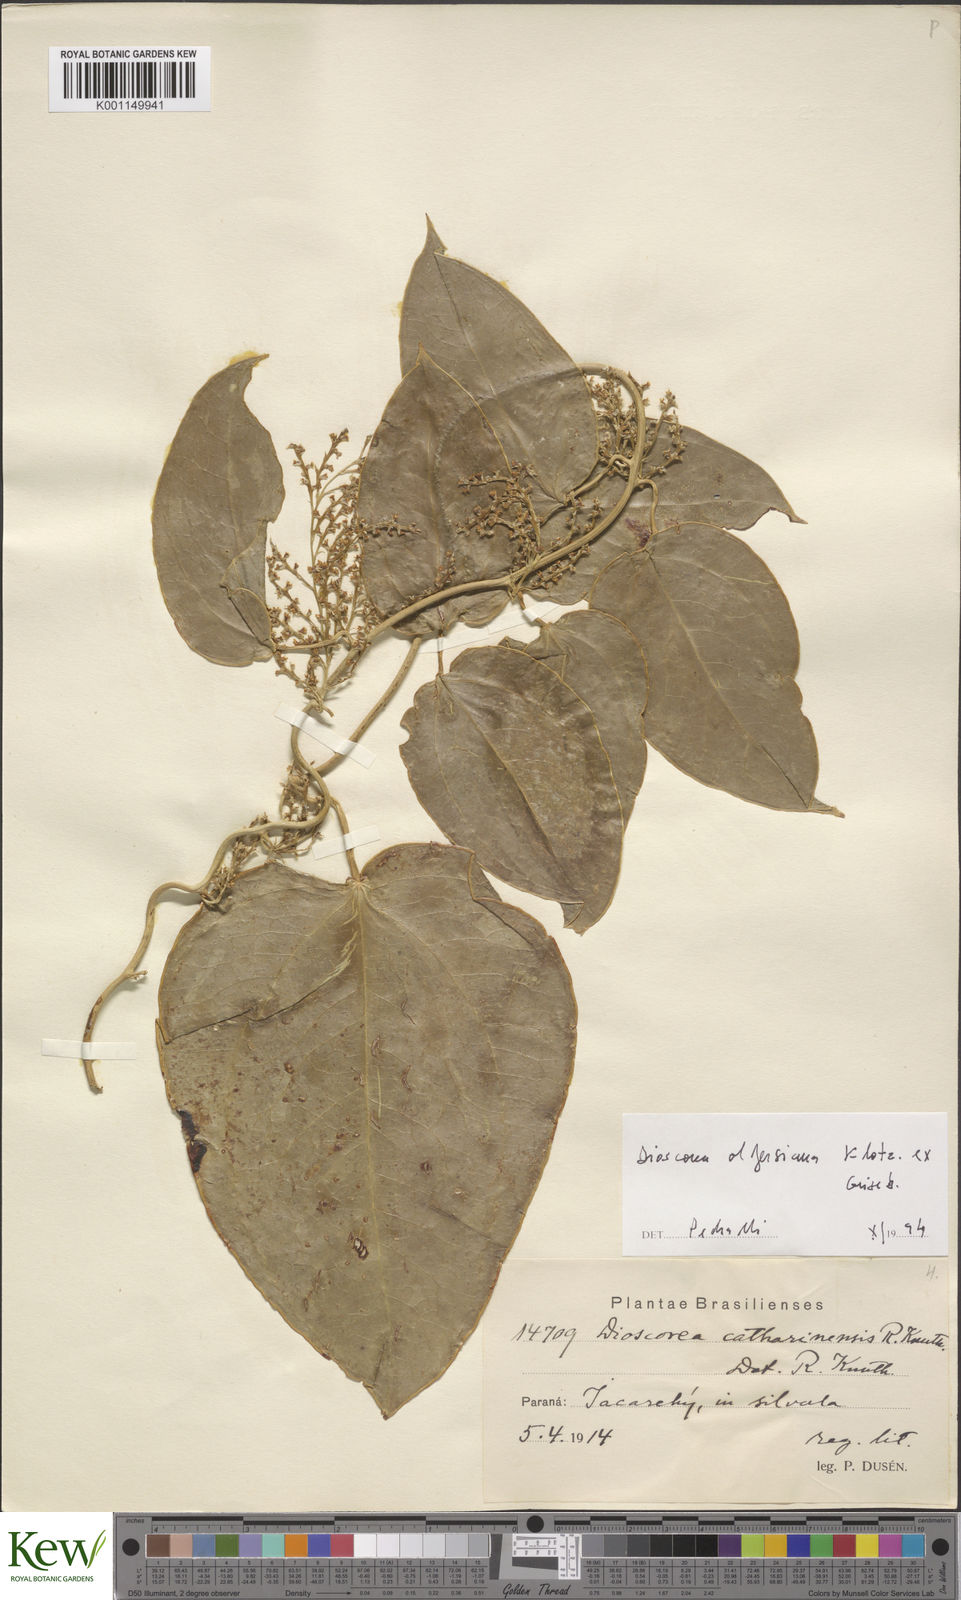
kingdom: Plantae
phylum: Tracheophyta
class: Liliopsida
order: Dioscoreales
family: Dioscoreaceae
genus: Dioscorea
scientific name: Dioscorea olfersiana
